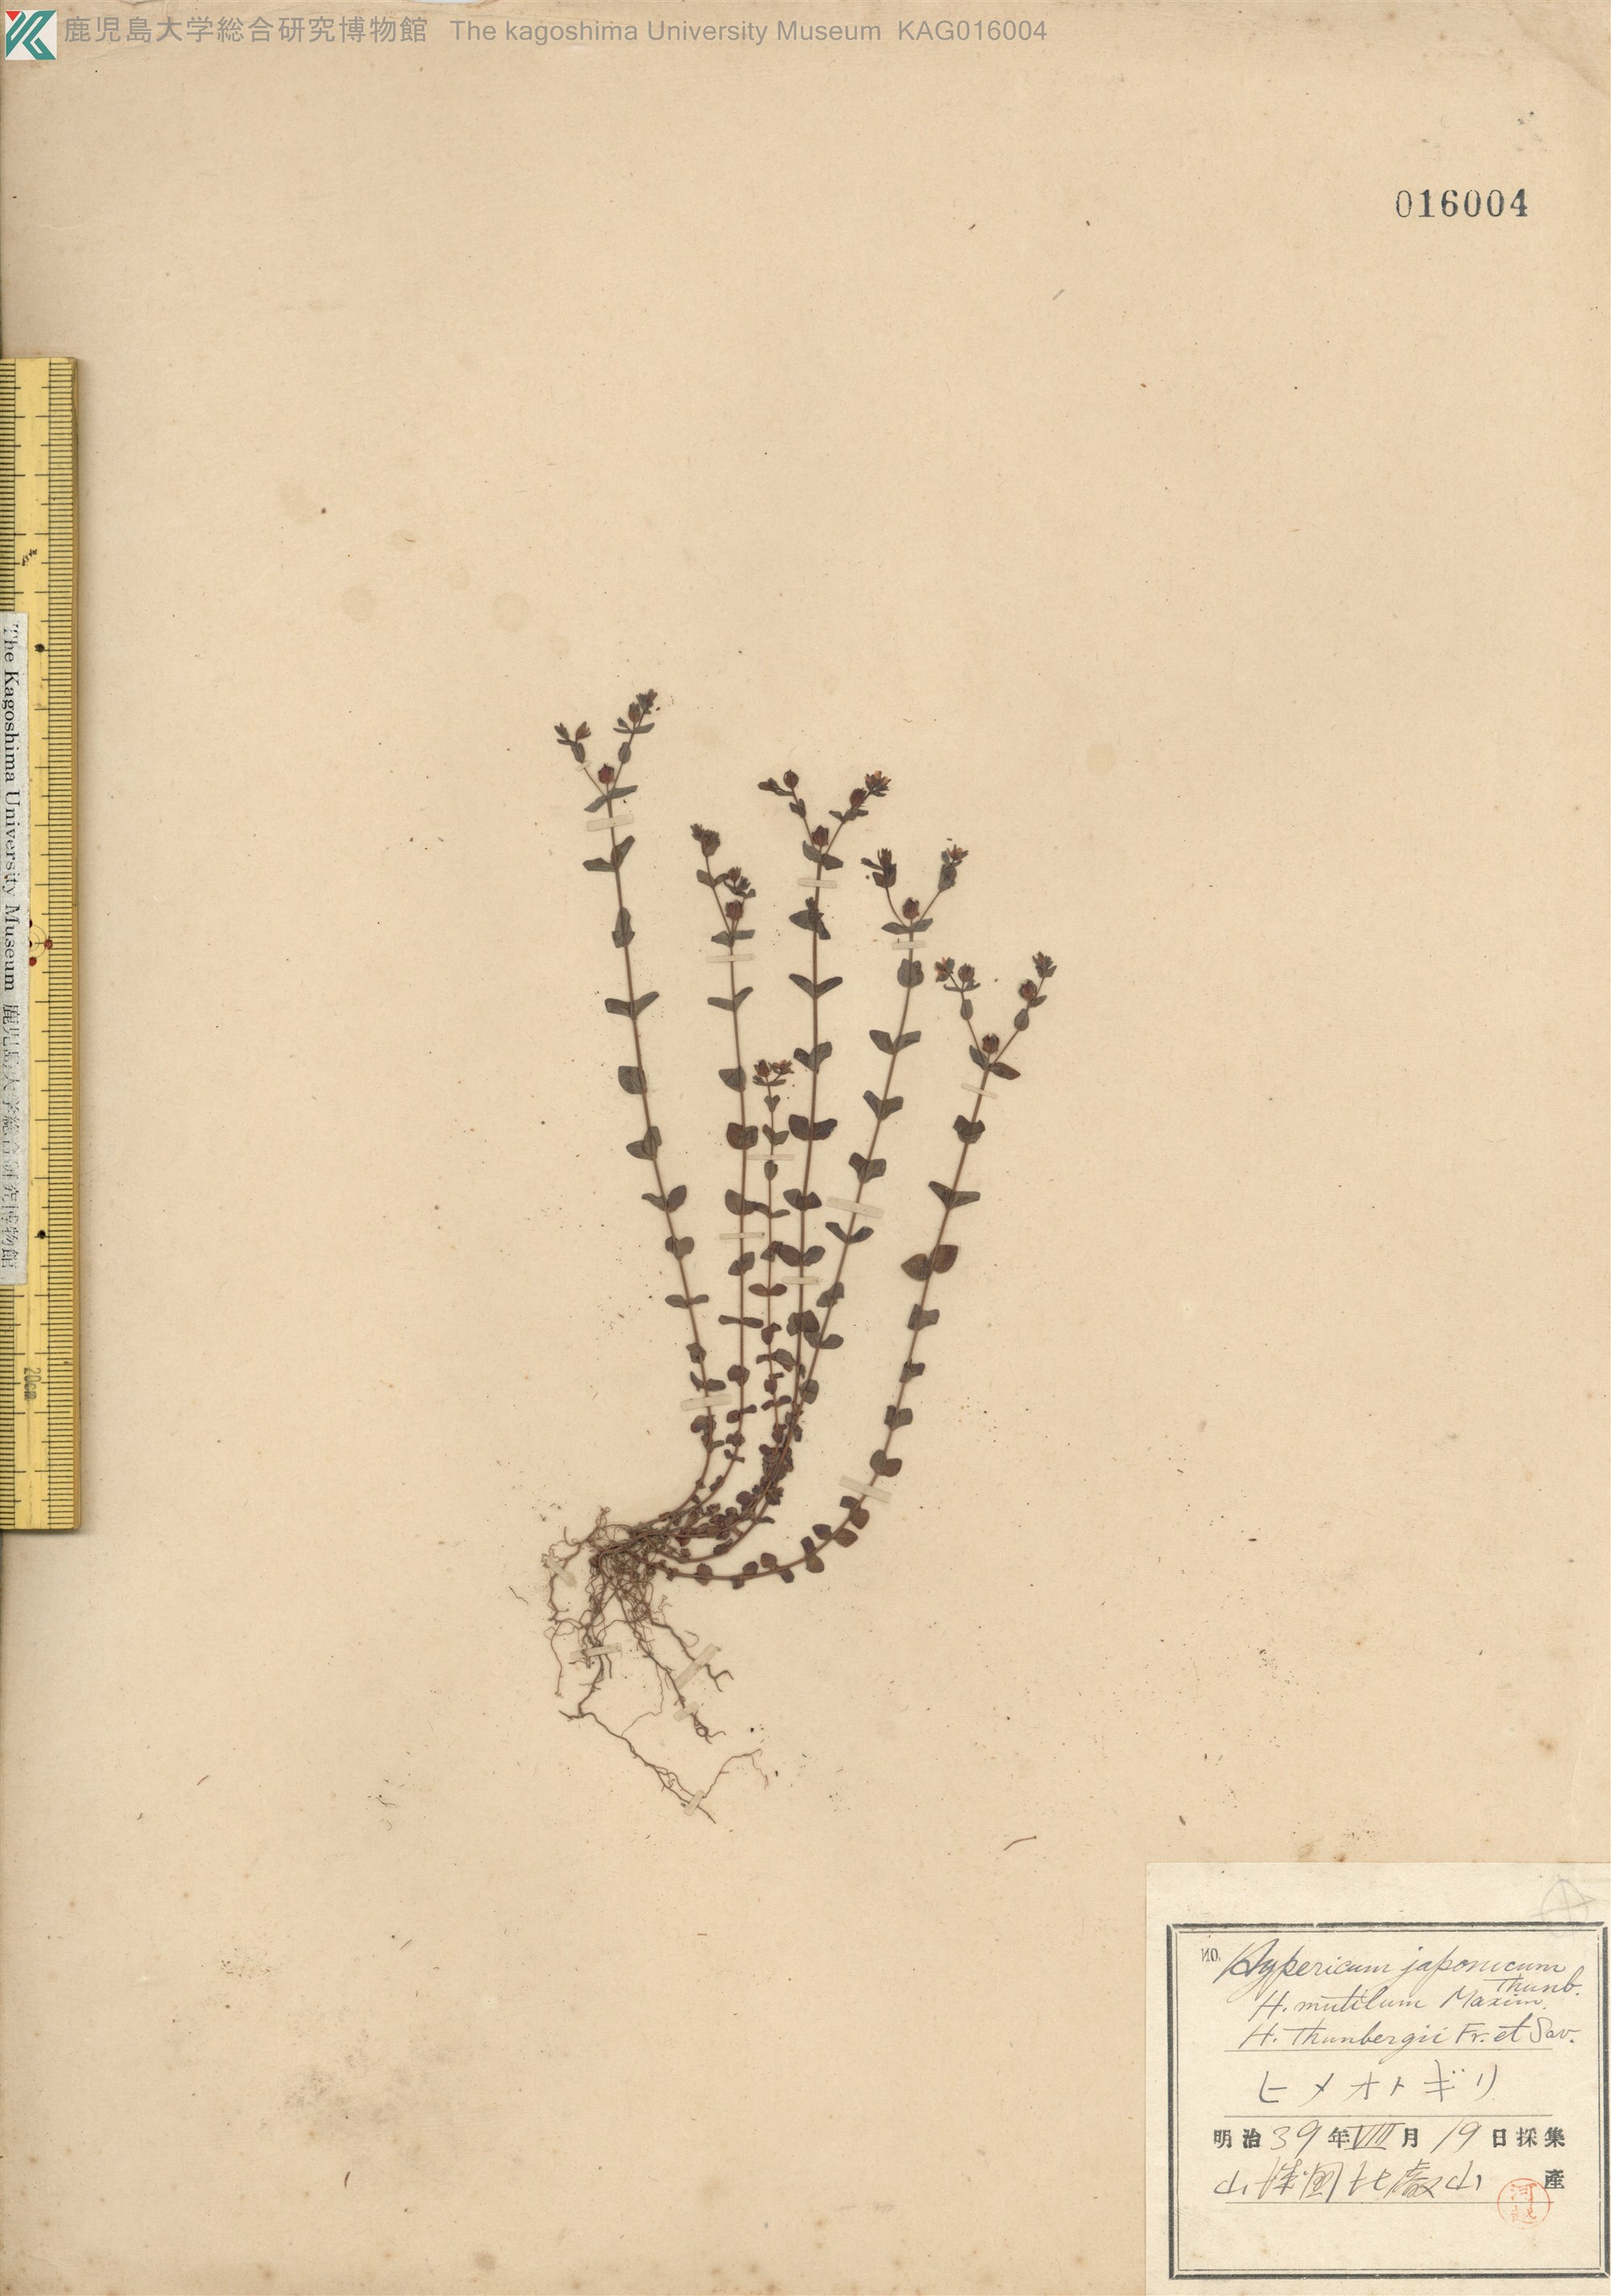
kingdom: Plantae
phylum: Tracheophyta
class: Magnoliopsida
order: Malpighiales
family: Hypericaceae
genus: Hypericum
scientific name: Hypericum japonicum
